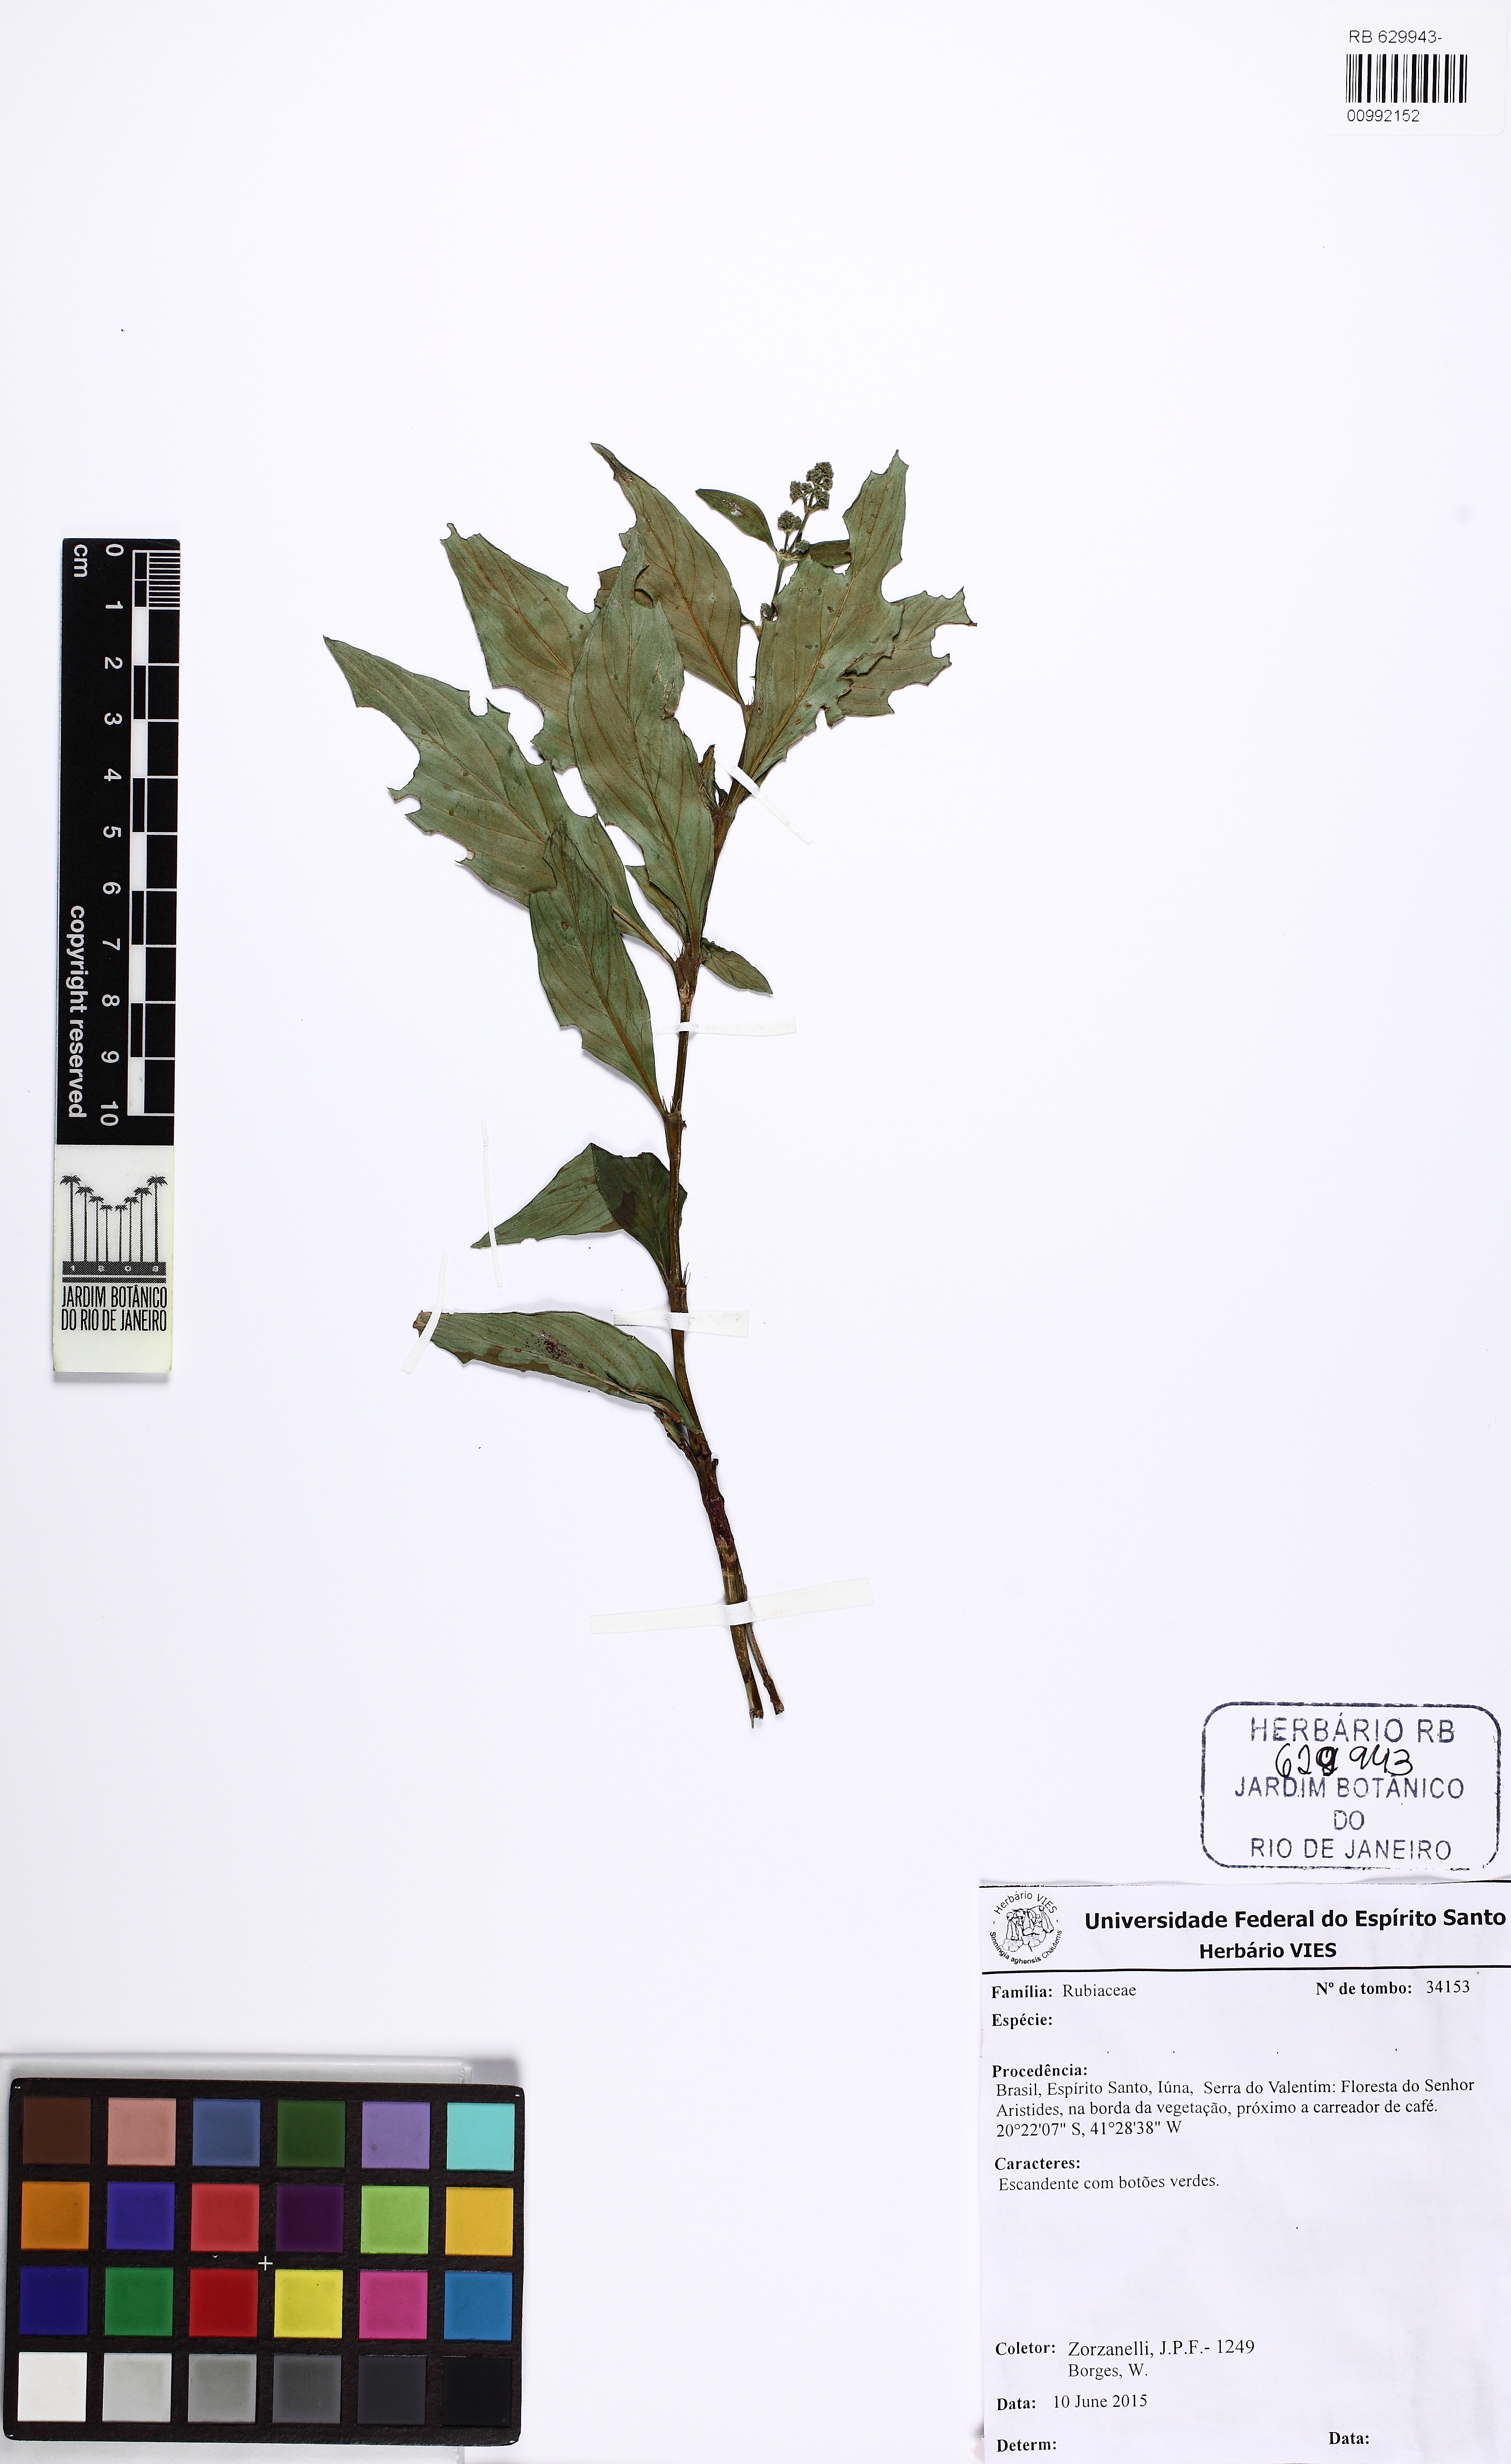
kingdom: Plantae
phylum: Tracheophyta
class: Magnoliopsida
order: Gentianales
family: Rubiaceae
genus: Spermacoce
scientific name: Spermacoce
